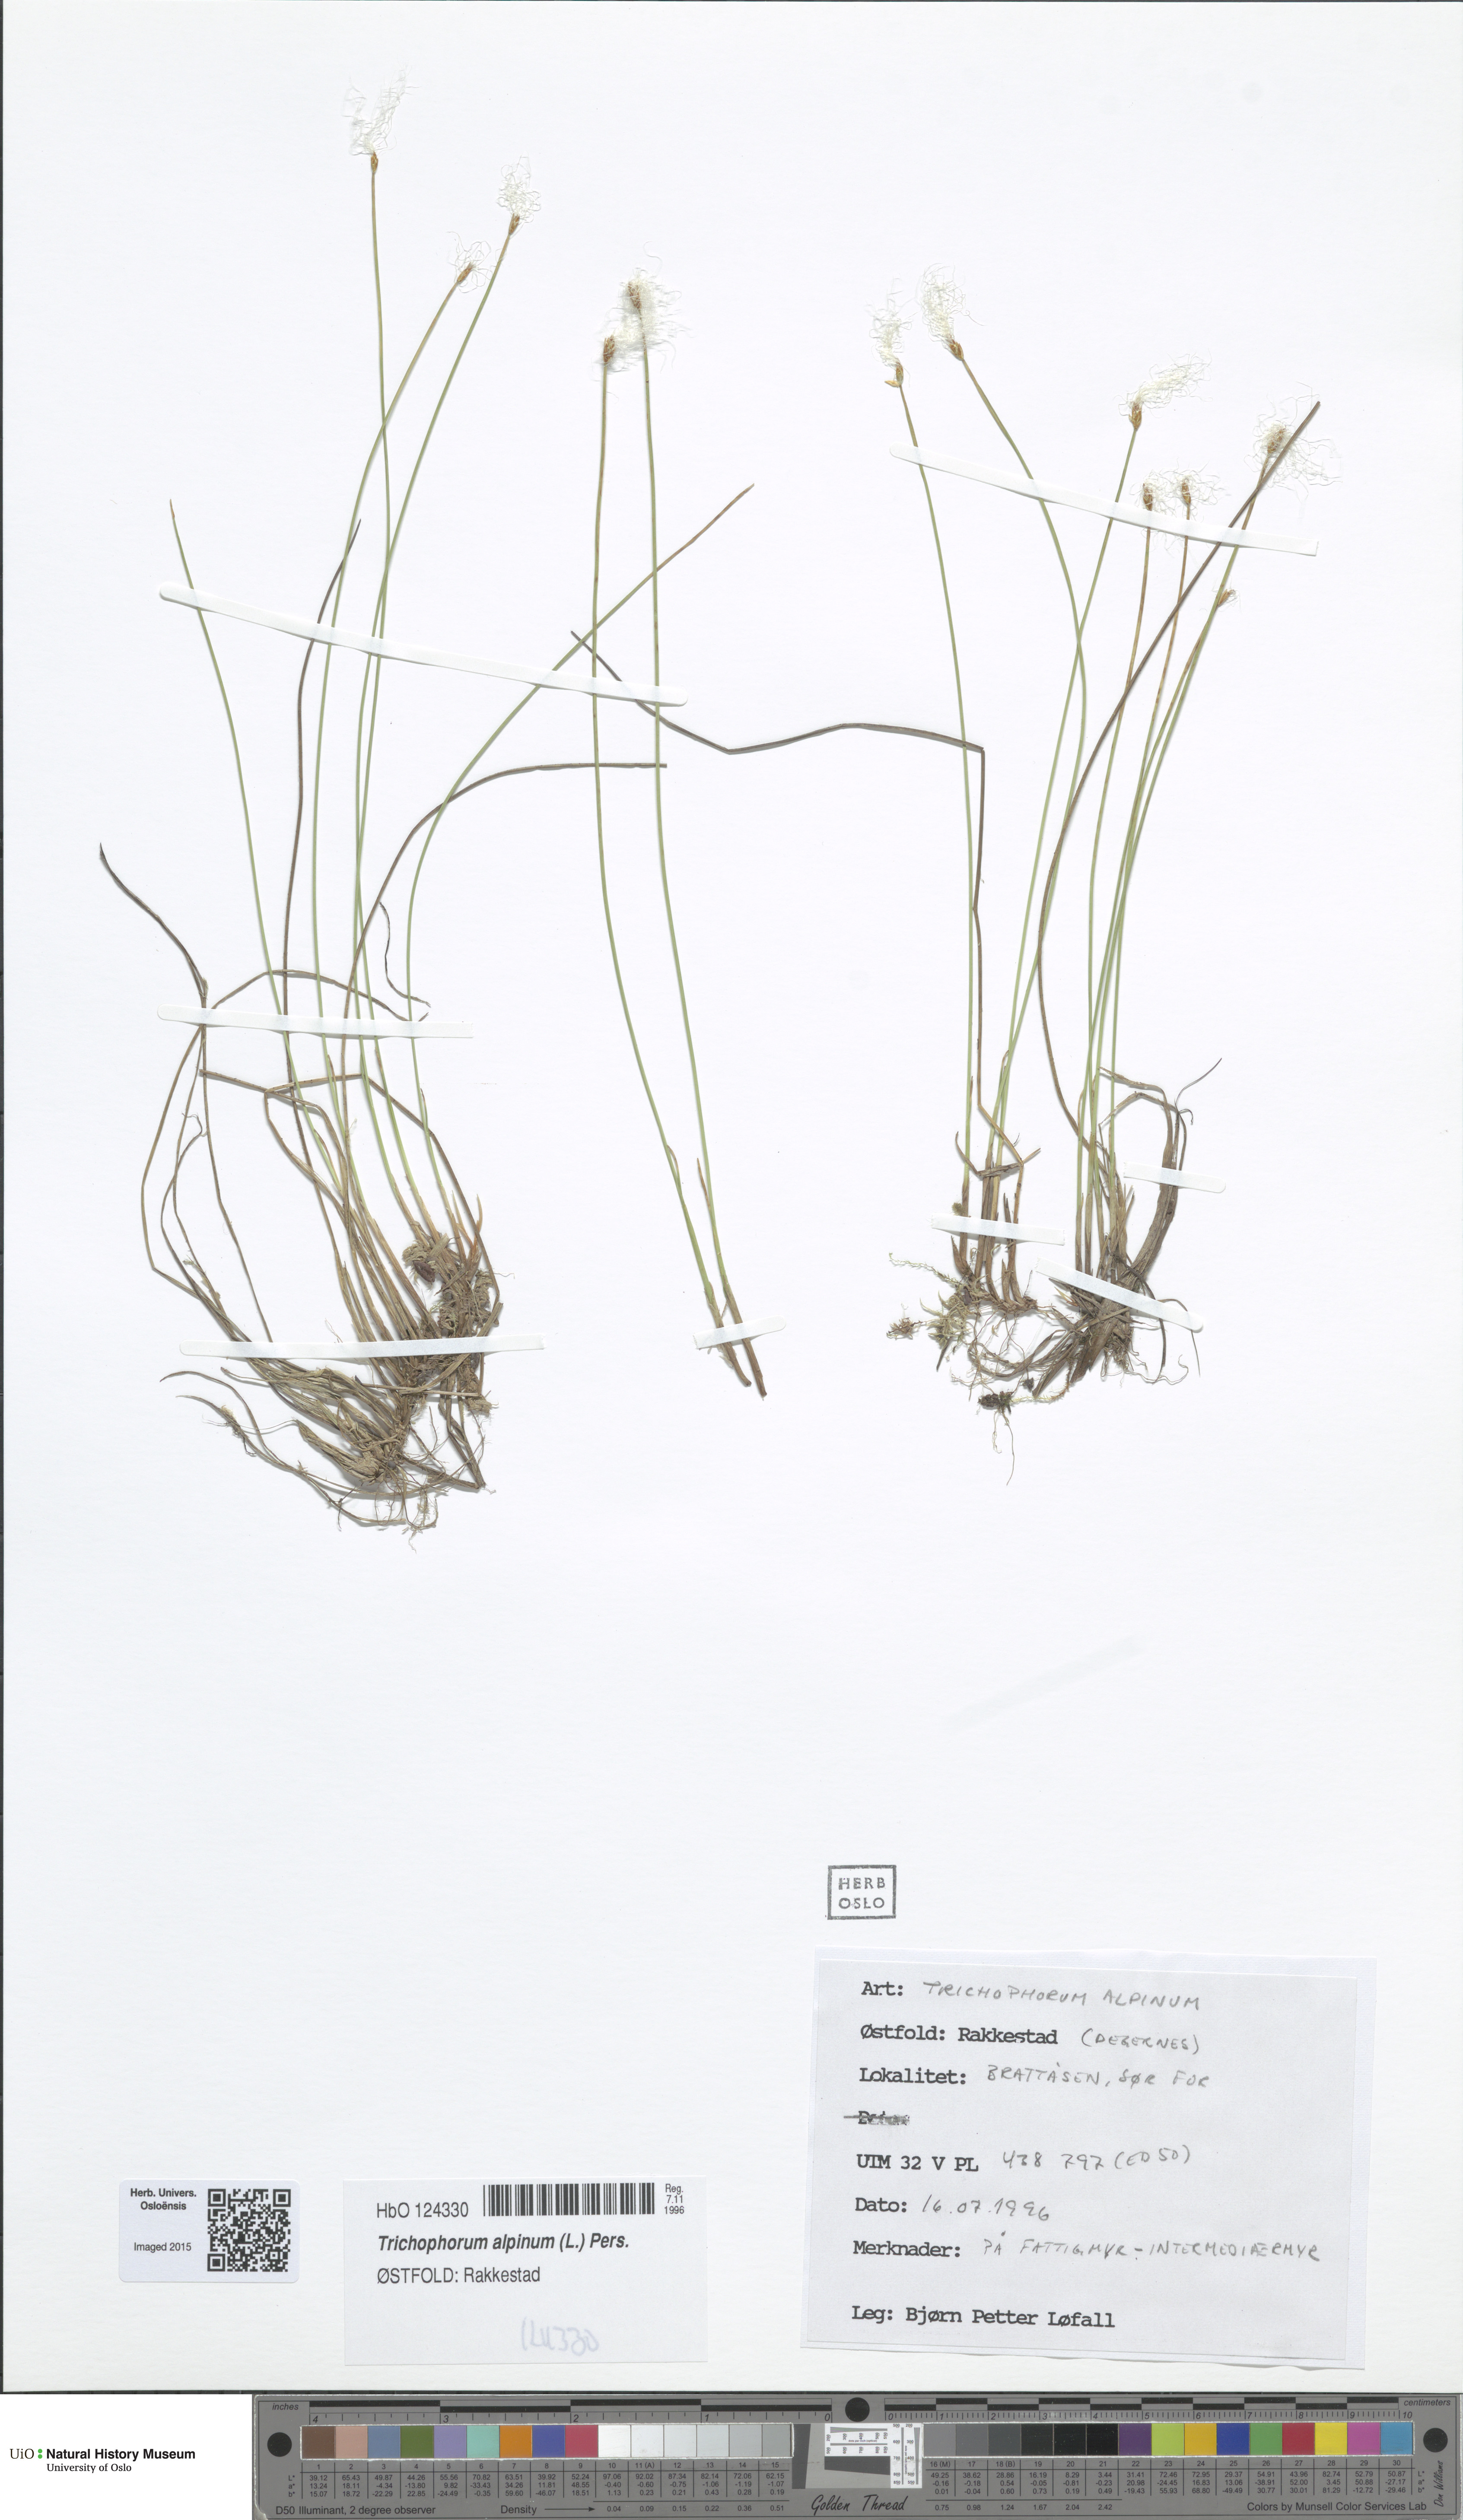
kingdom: Plantae
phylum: Tracheophyta
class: Liliopsida
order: Poales
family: Cyperaceae
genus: Trichophorum
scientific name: Trichophorum alpinum
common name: Alpine bulrush
